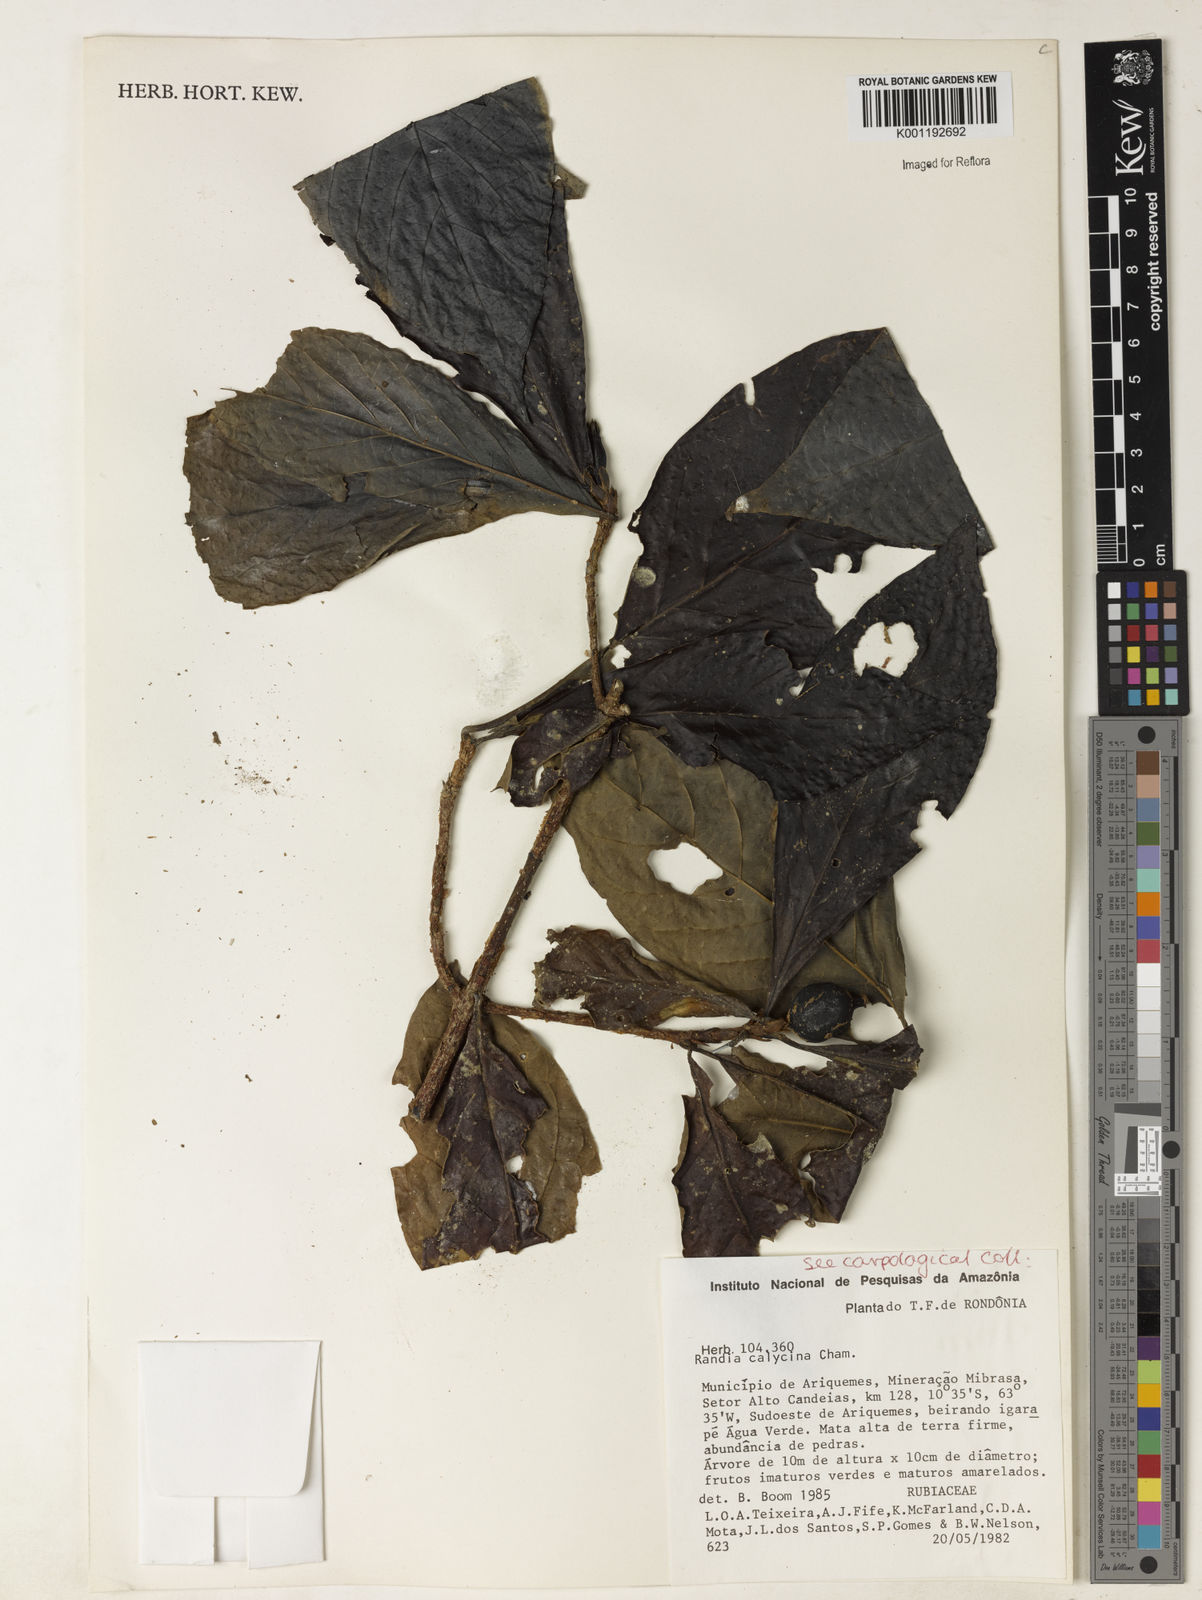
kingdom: Plantae
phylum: Tracheophyta
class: Magnoliopsida
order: Gentianales
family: Rubiaceae
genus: Randia
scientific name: Randia calycina
